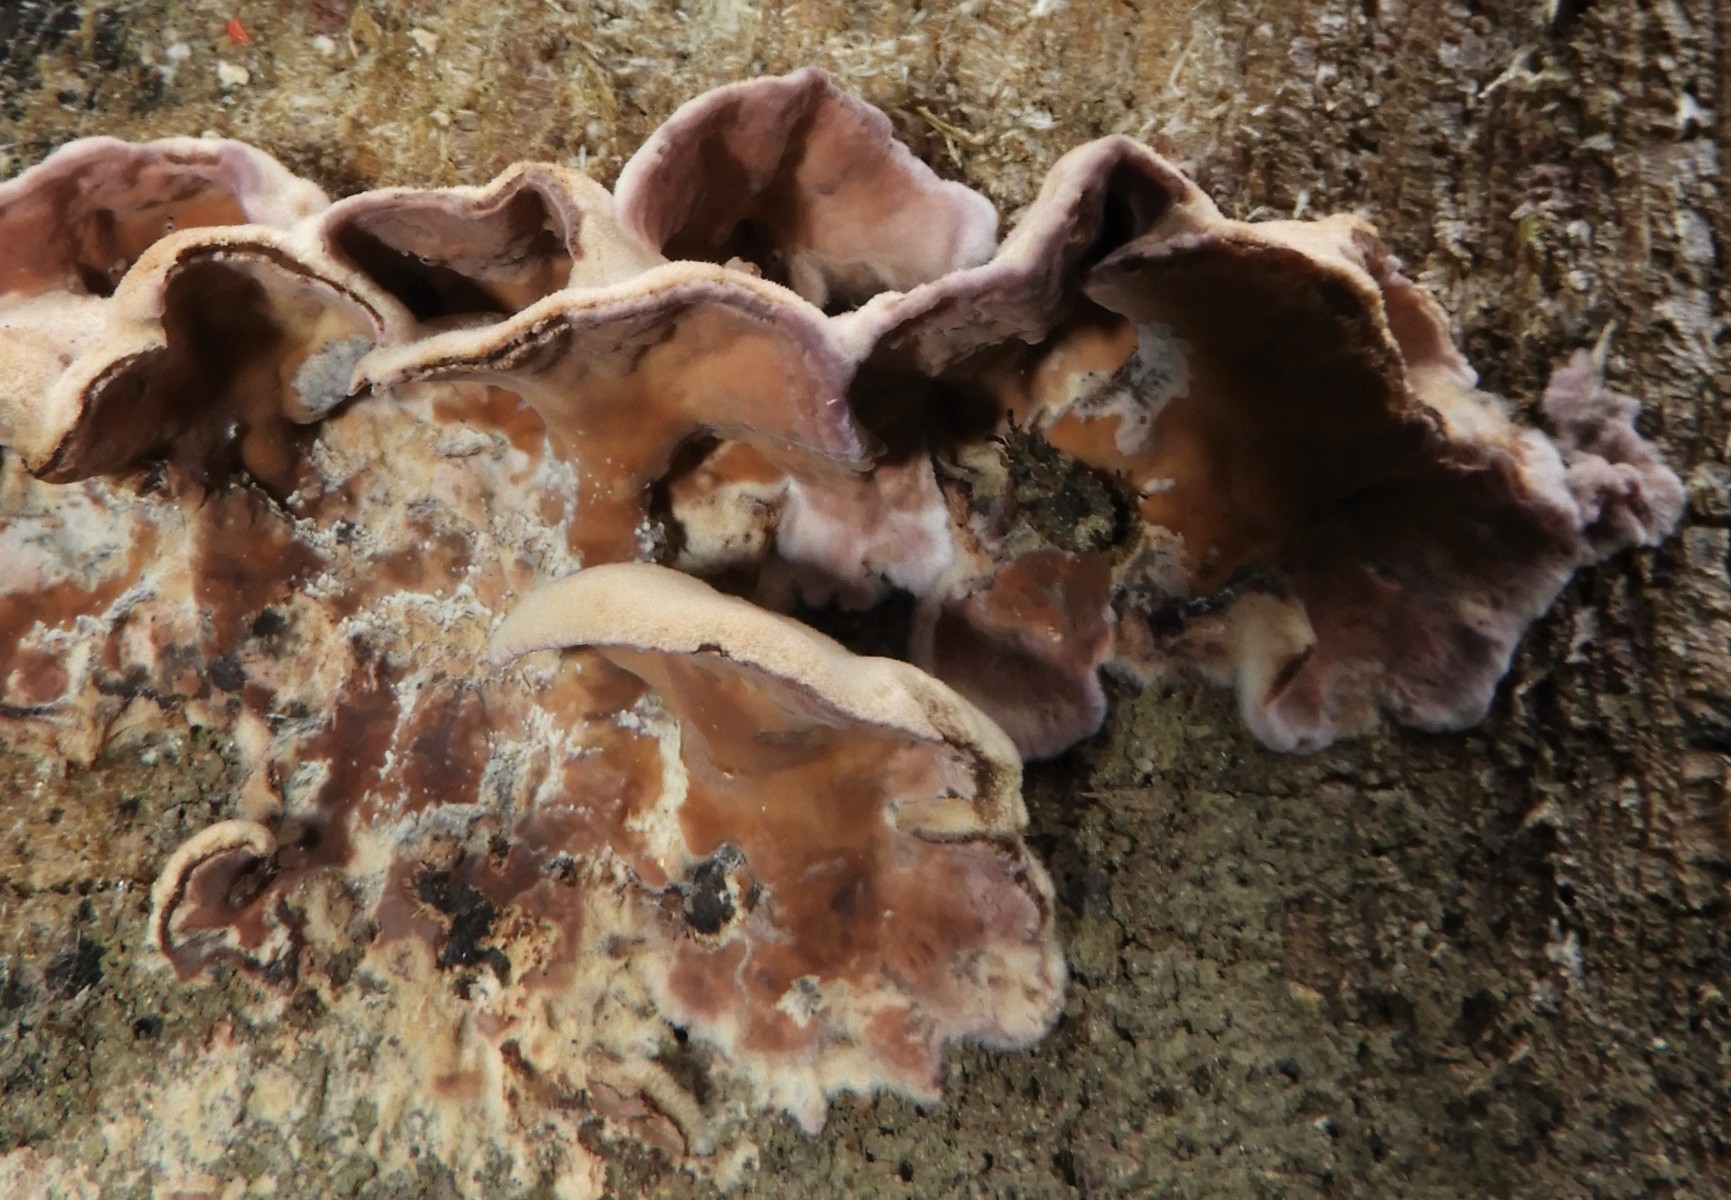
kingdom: Fungi
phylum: Basidiomycota
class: Agaricomycetes
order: Agaricales
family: Cyphellaceae
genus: Chondrostereum
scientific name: Chondrostereum purpureum
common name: purpurlædersvamp
